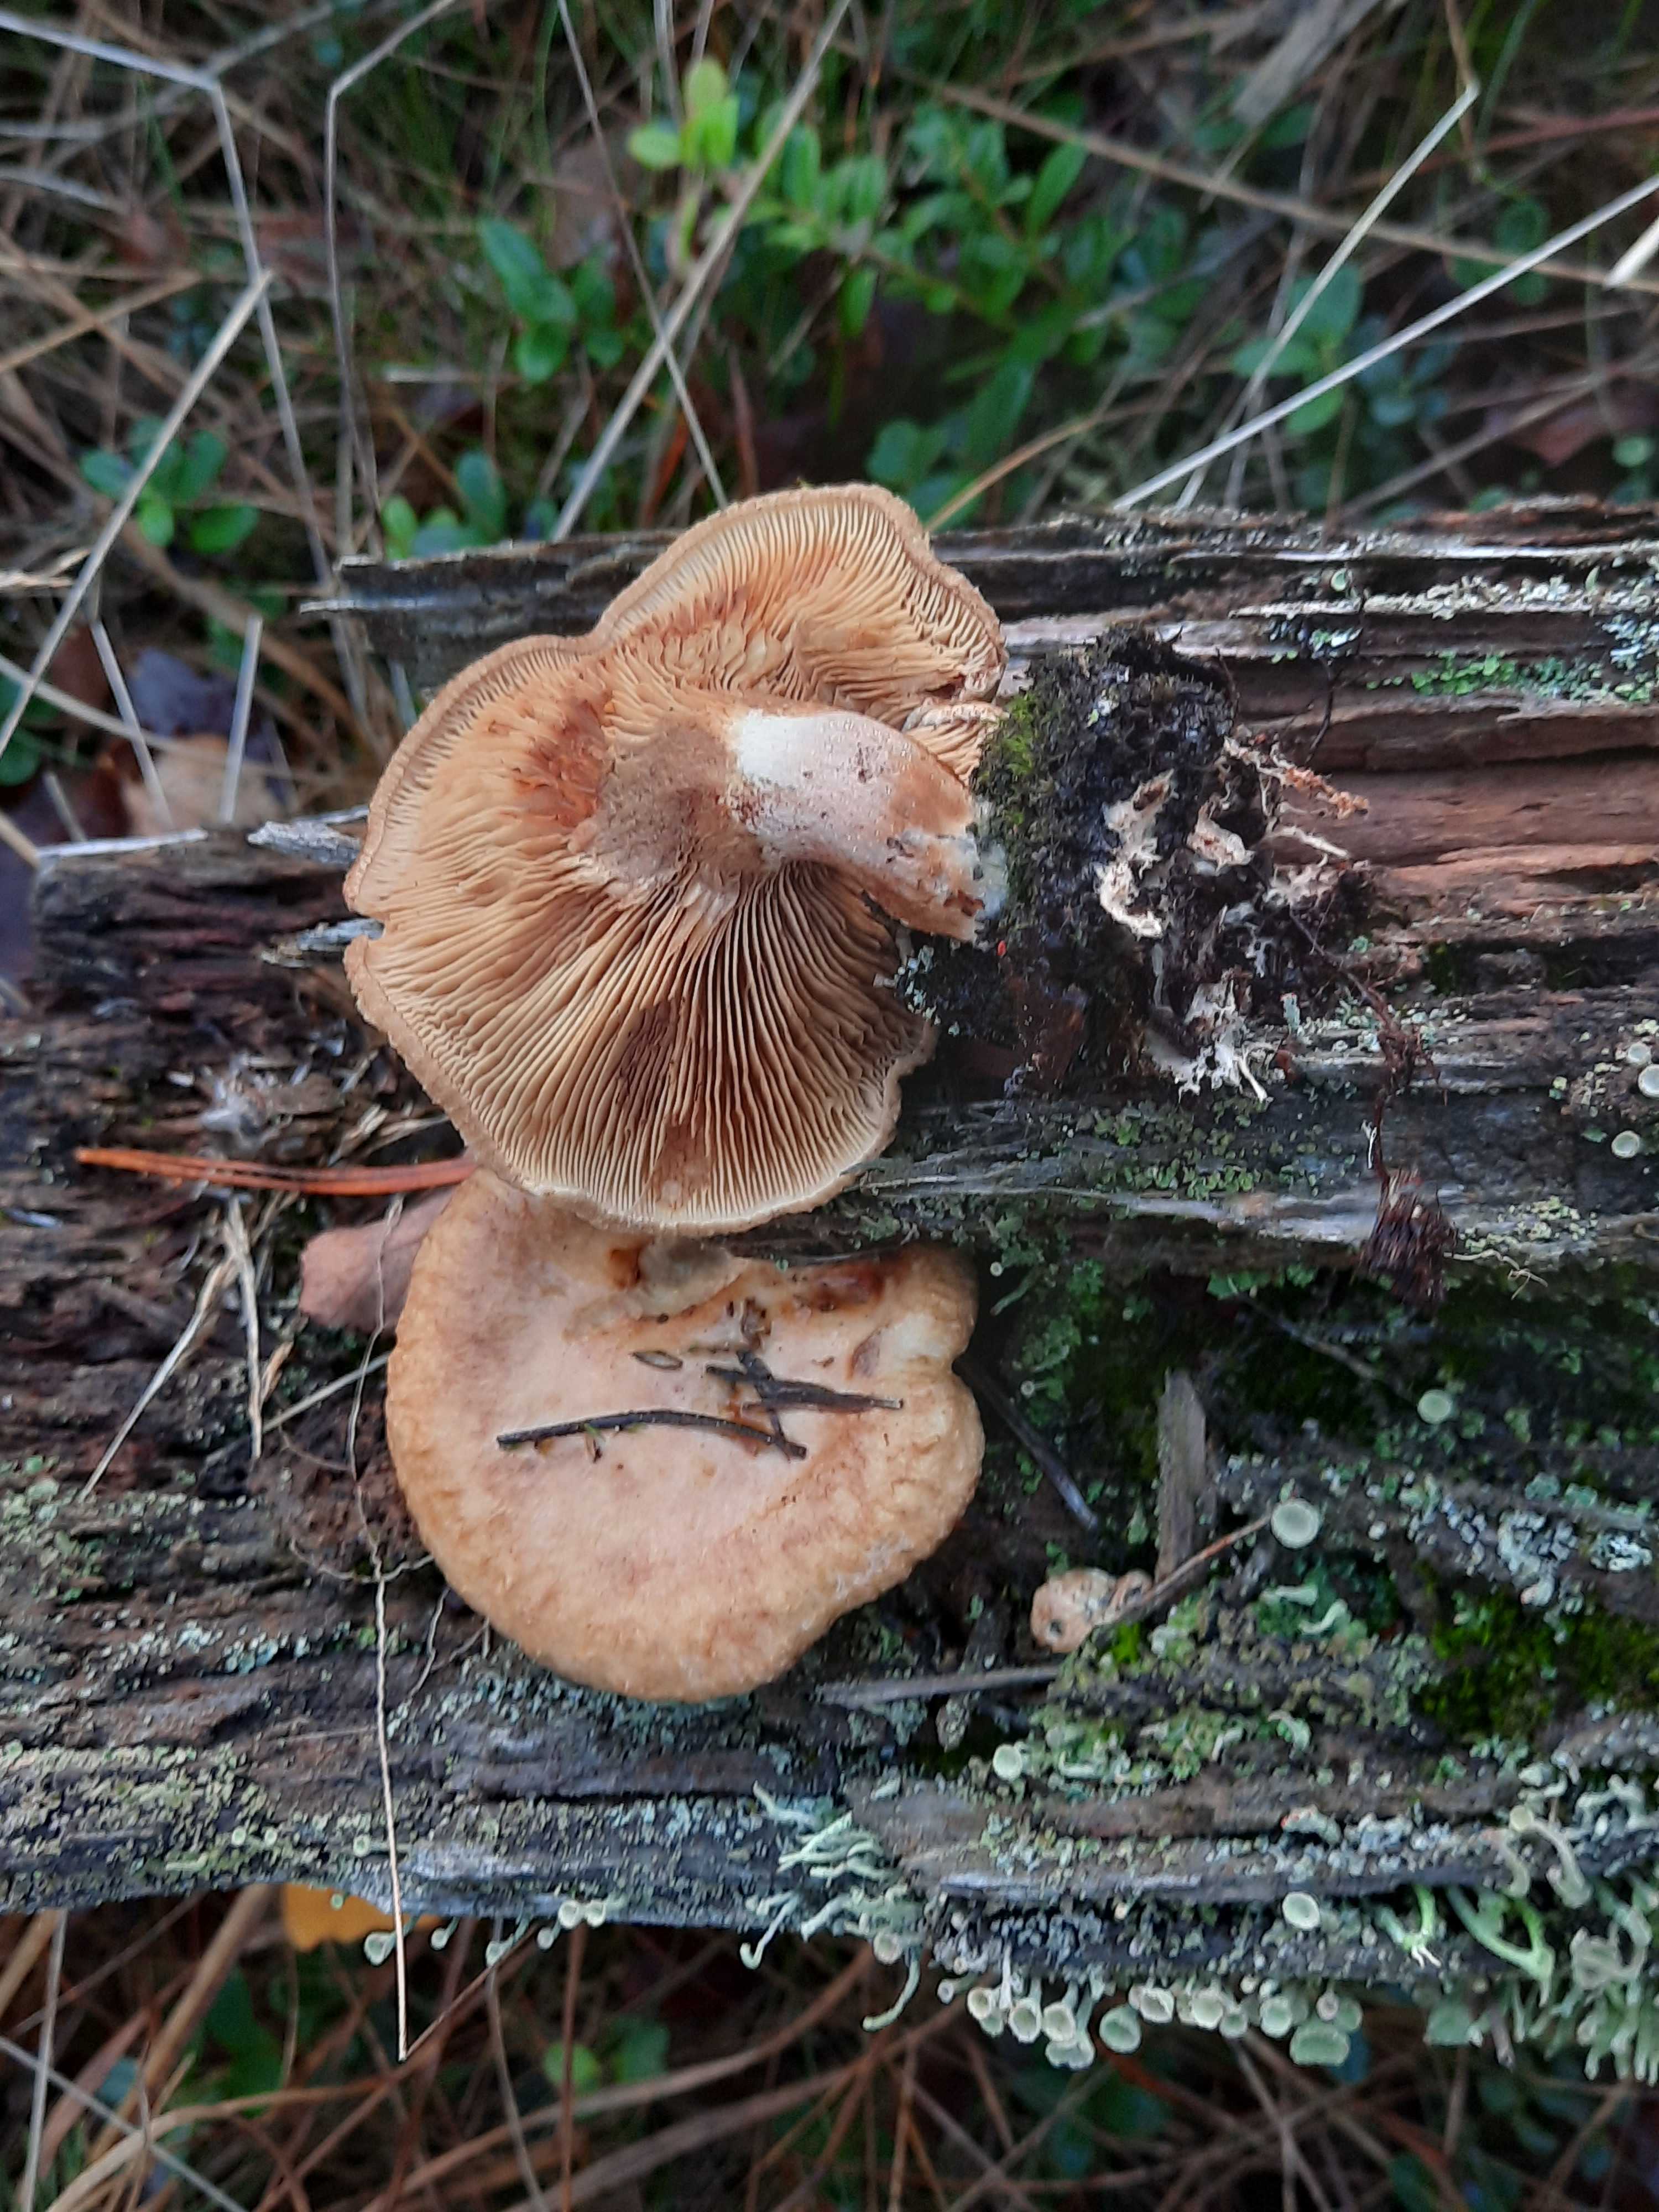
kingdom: Fungi
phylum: Basidiomycota
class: Agaricomycetes
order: Boletales
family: Paxillaceae
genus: Paxillus
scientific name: Paxillus involutus
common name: almindelig netbladhat
